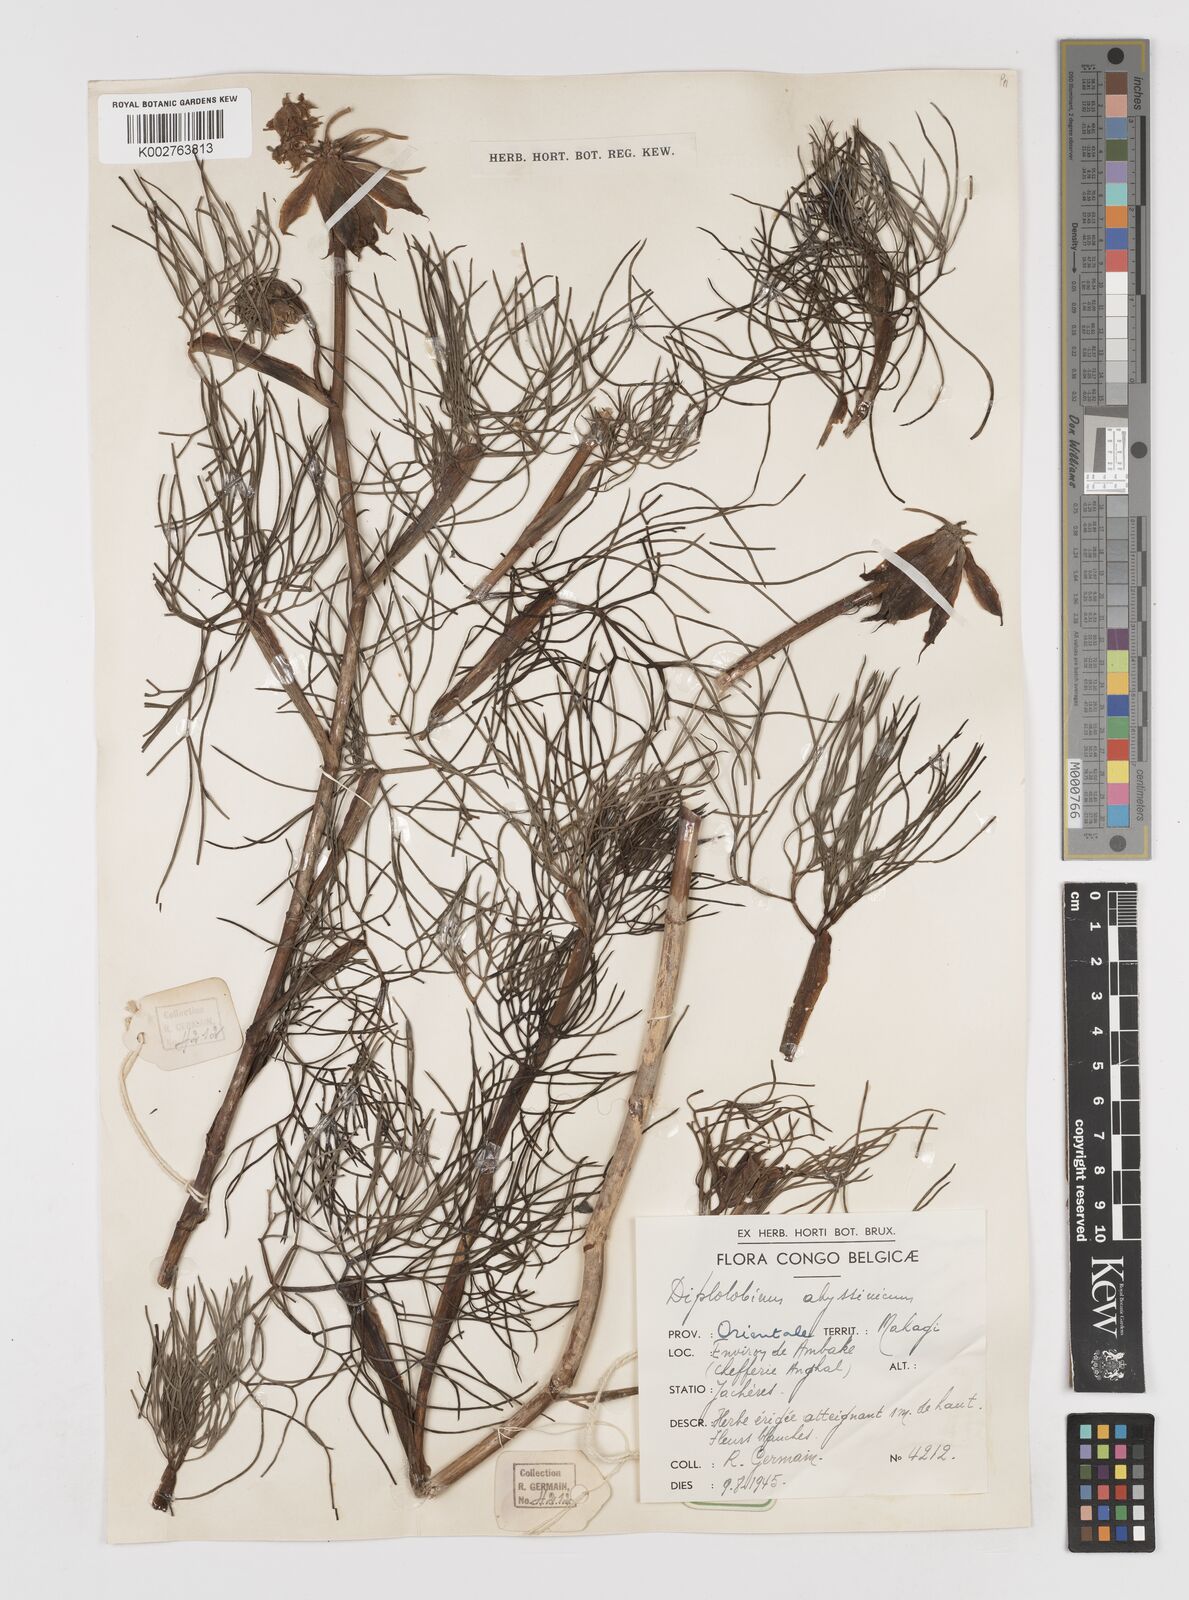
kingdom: Plantae
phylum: Tracheophyta
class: Magnoliopsida
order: Apiales
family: Apiaceae
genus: Diplolophium
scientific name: Diplolophium africanum
